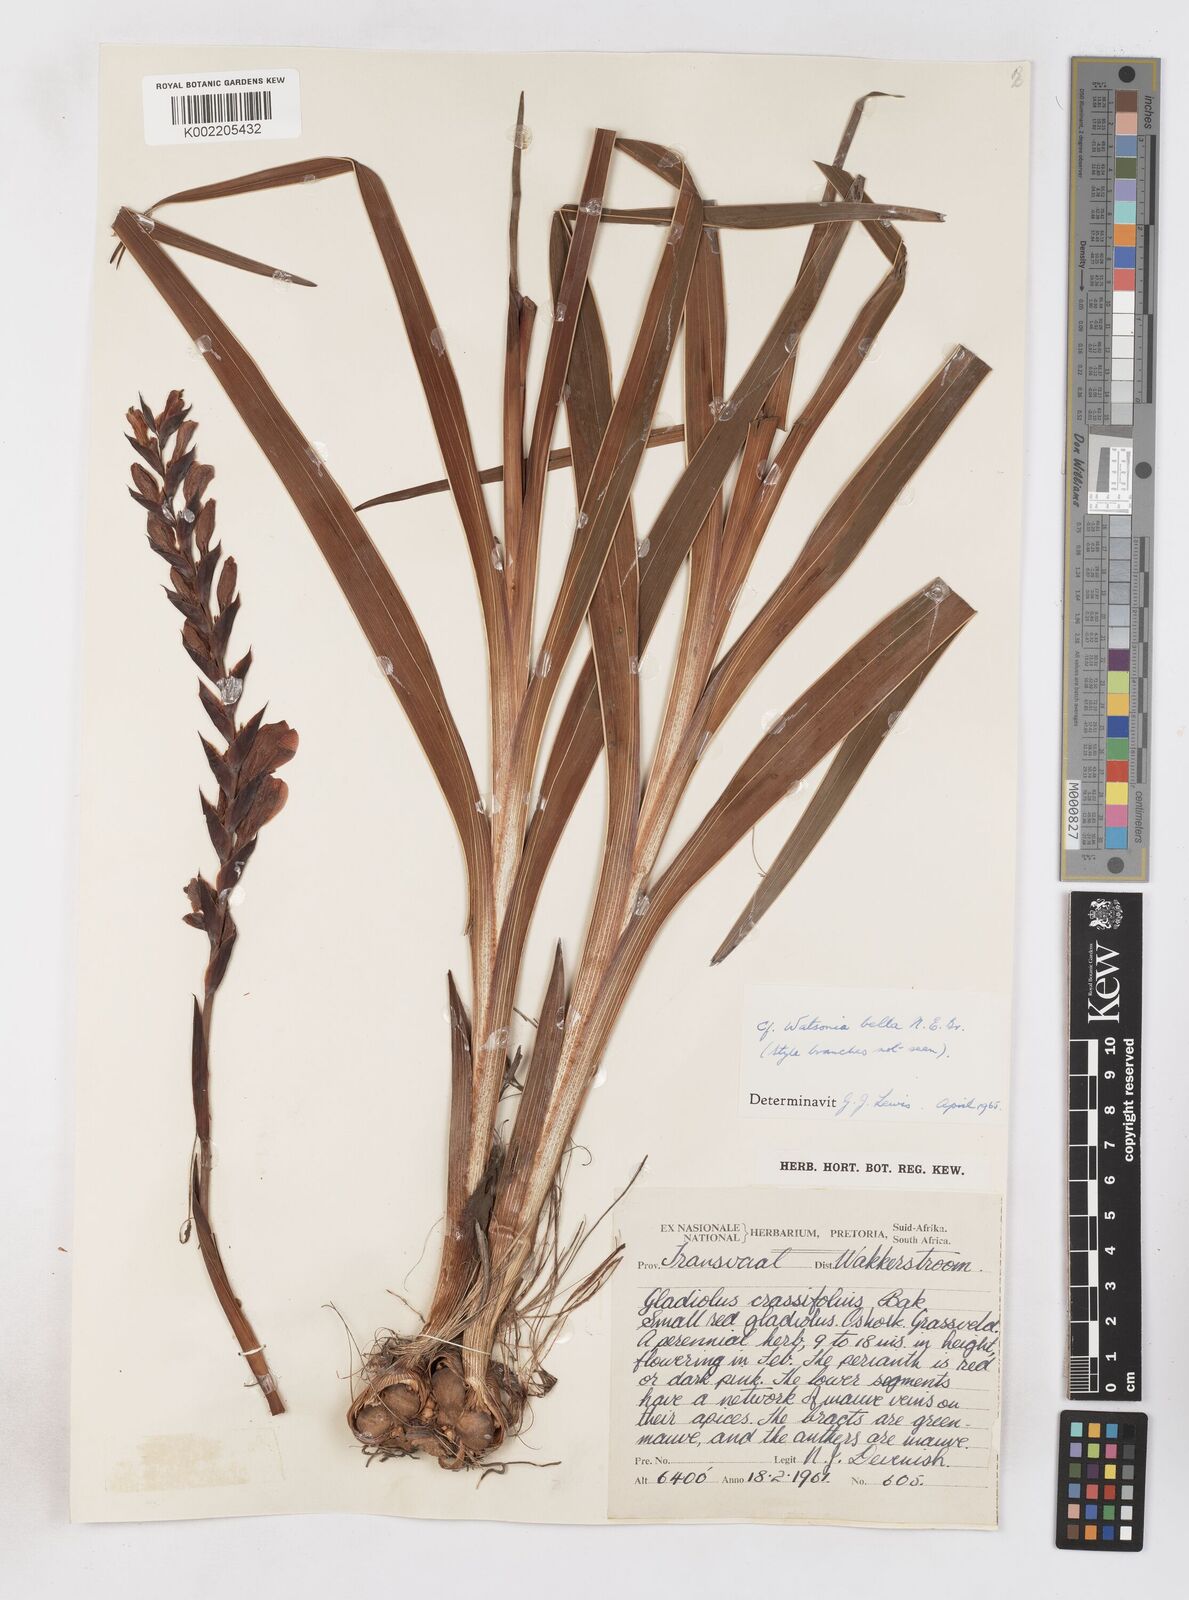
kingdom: Plantae
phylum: Tracheophyta
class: Liliopsida
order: Asparagales
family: Iridaceae
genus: Gladiolus
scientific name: Gladiolus densiflorus
